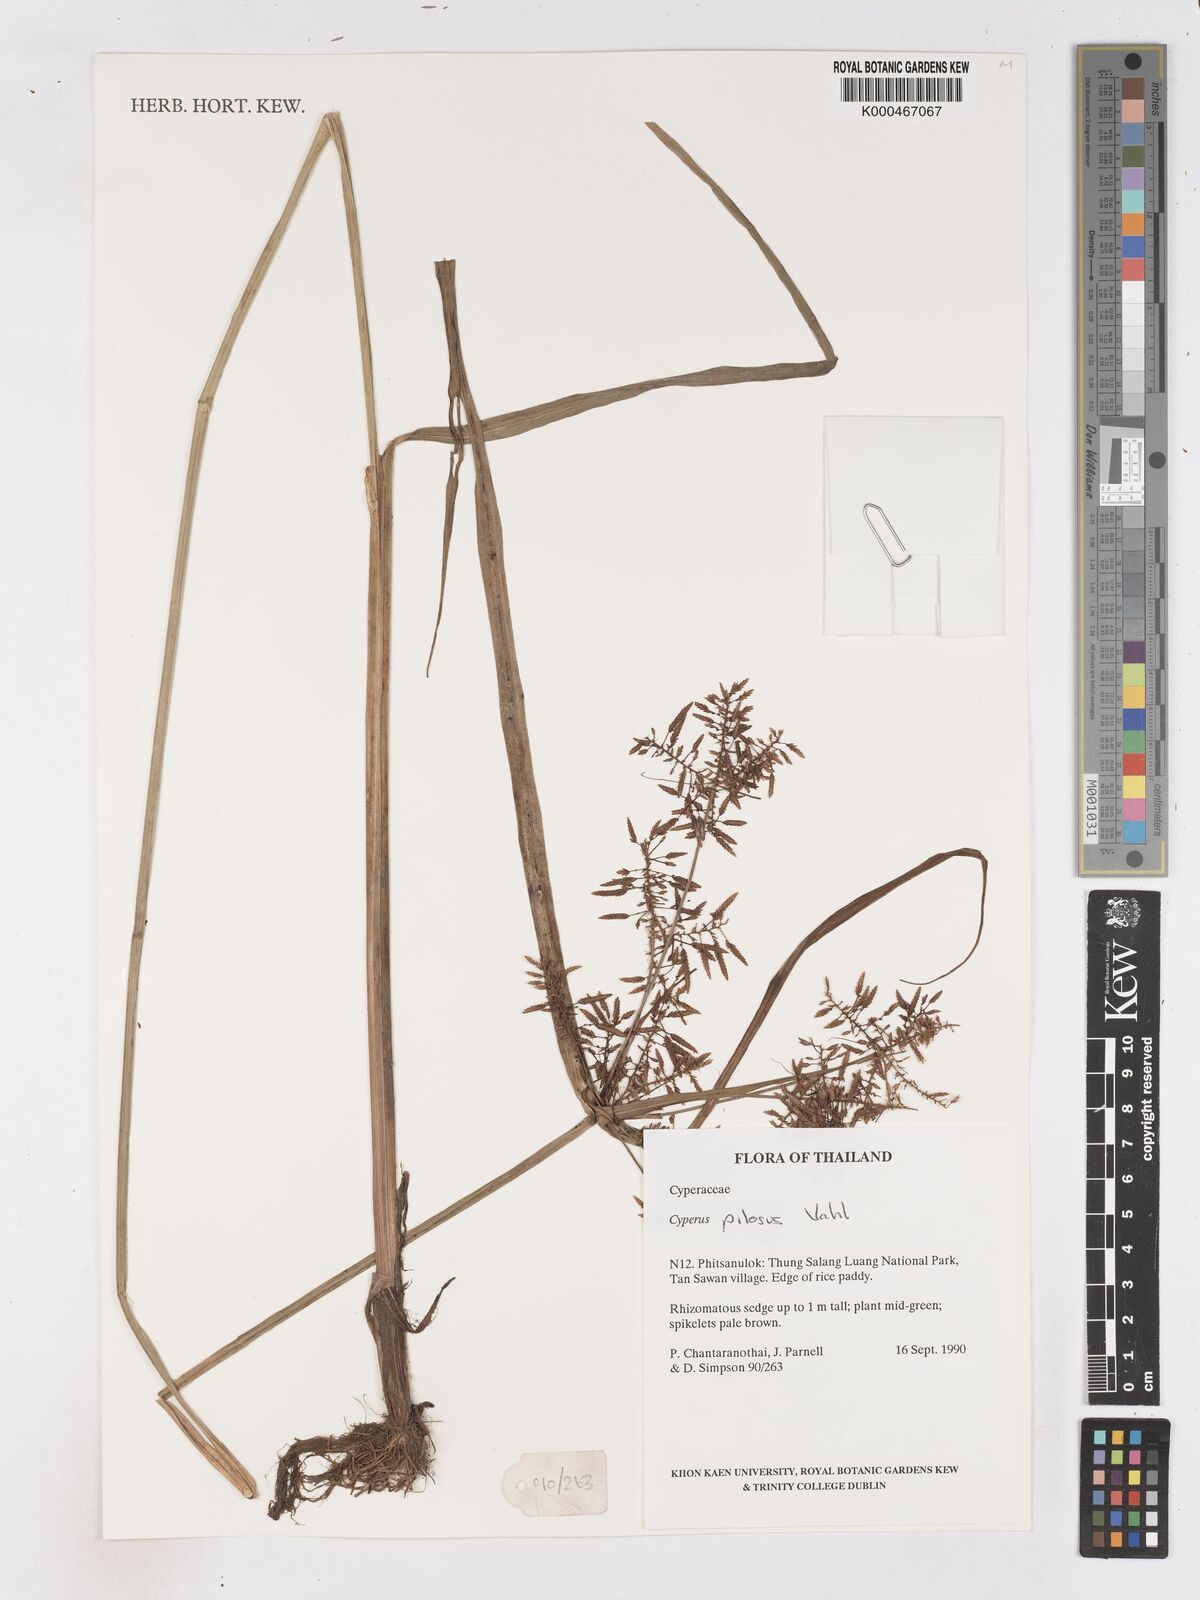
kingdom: Plantae
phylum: Tracheophyta
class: Liliopsida
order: Poales
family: Cyperaceae
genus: Cyperus
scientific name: Cyperus pilosus
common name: Fuzzy flatsedge
